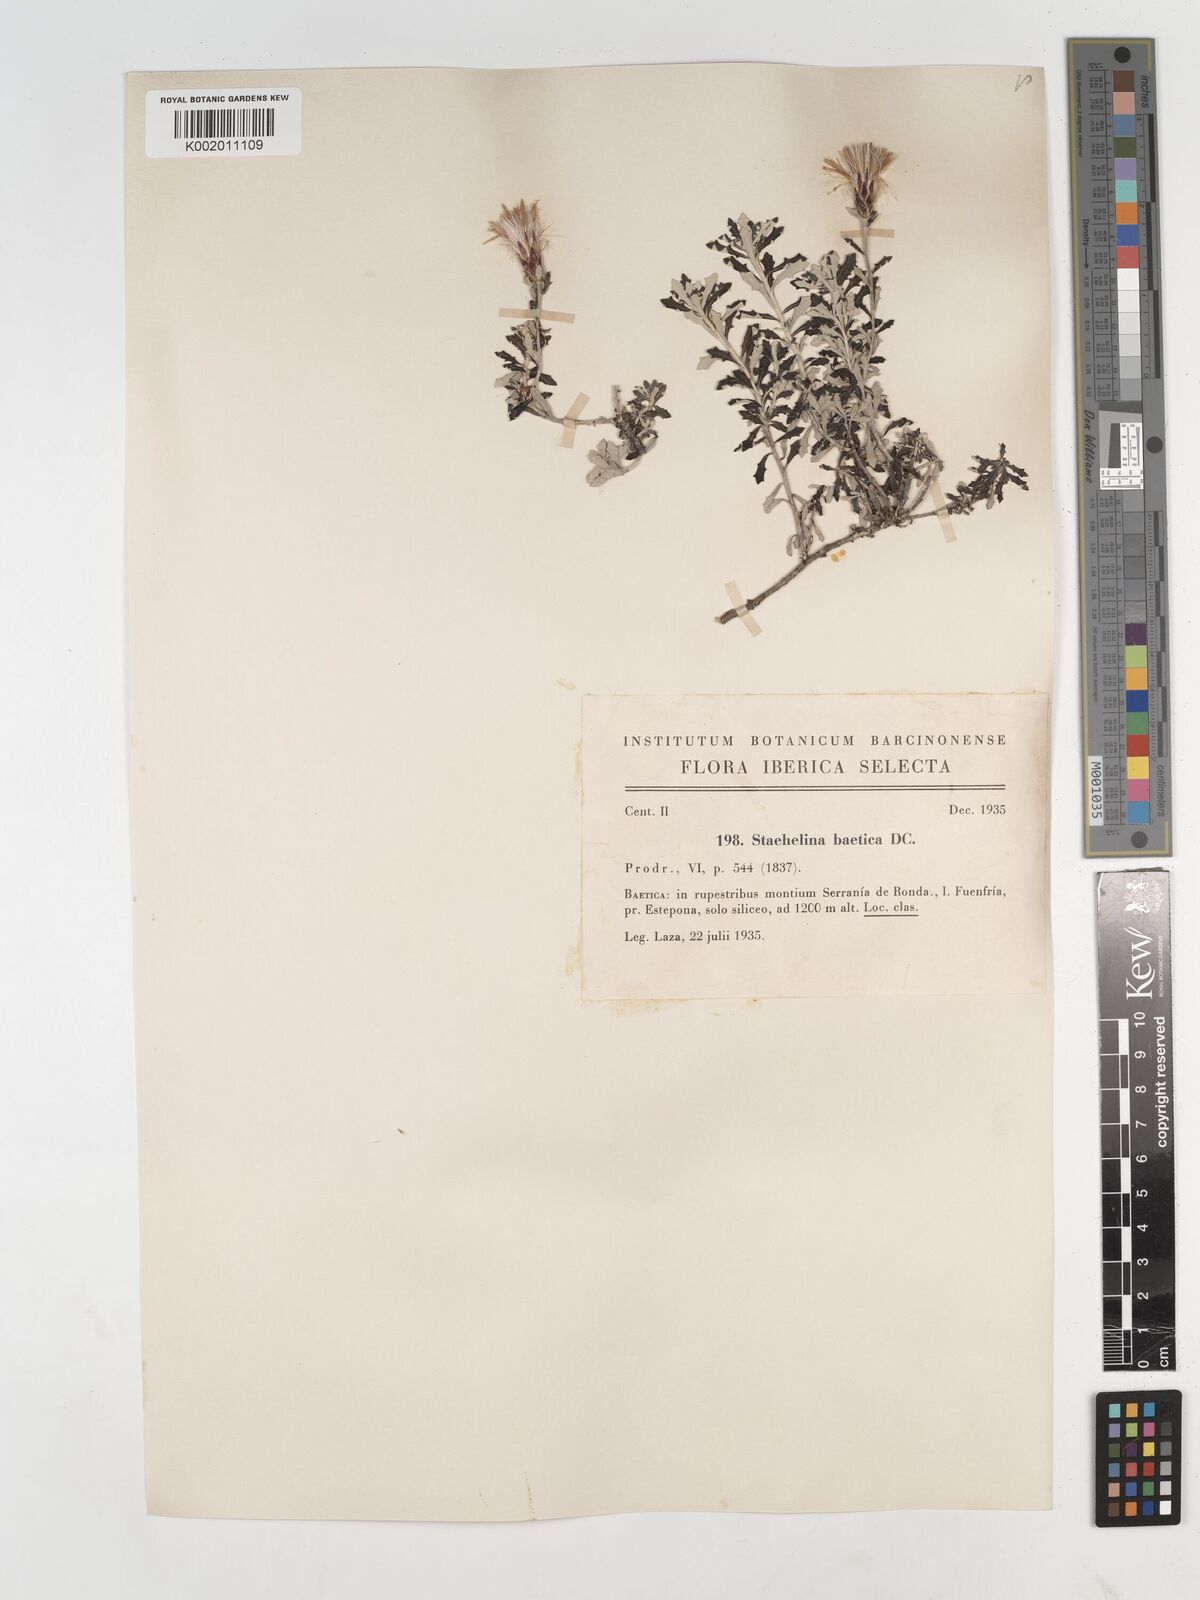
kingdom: Plantae
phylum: Tracheophyta
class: Magnoliopsida
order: Asterales
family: Asteraceae
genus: Staehelina
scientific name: Staehelina baetica
